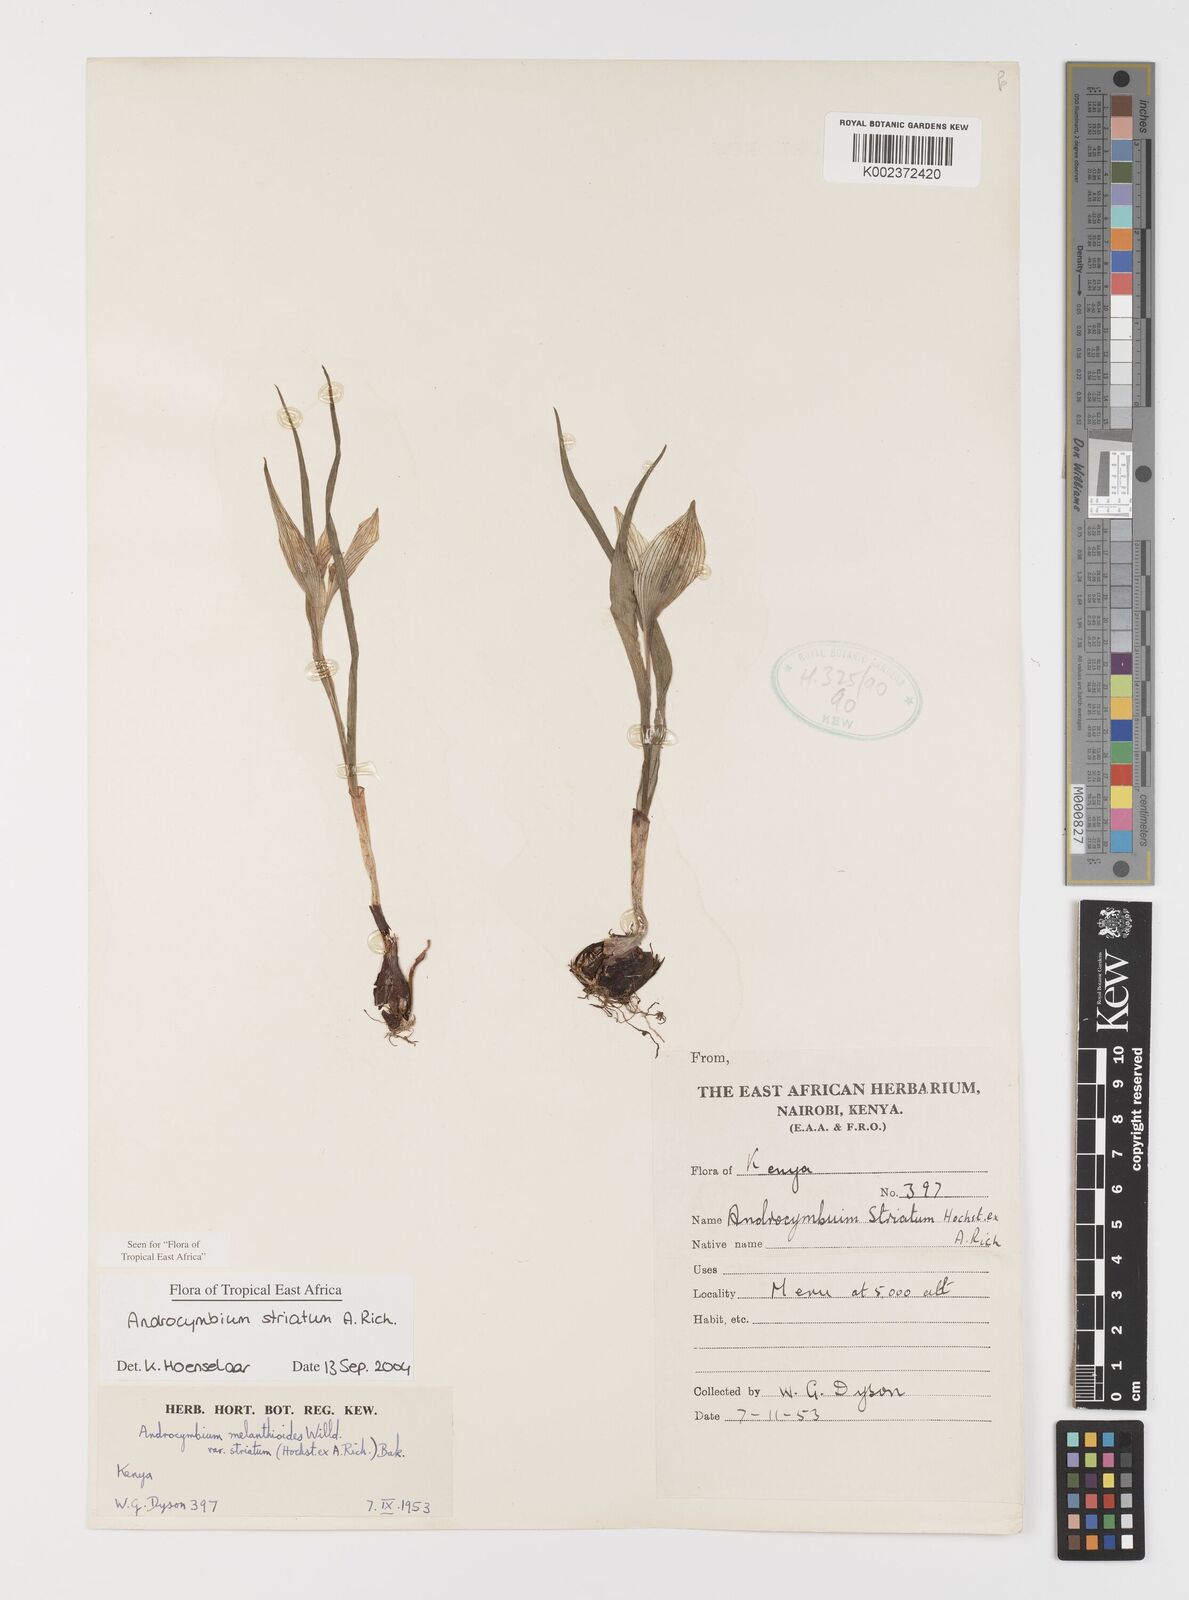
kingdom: Plantae
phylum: Tracheophyta
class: Liliopsida
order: Liliales
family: Colchicaceae
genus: Colchicum
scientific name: Colchicum striatum
